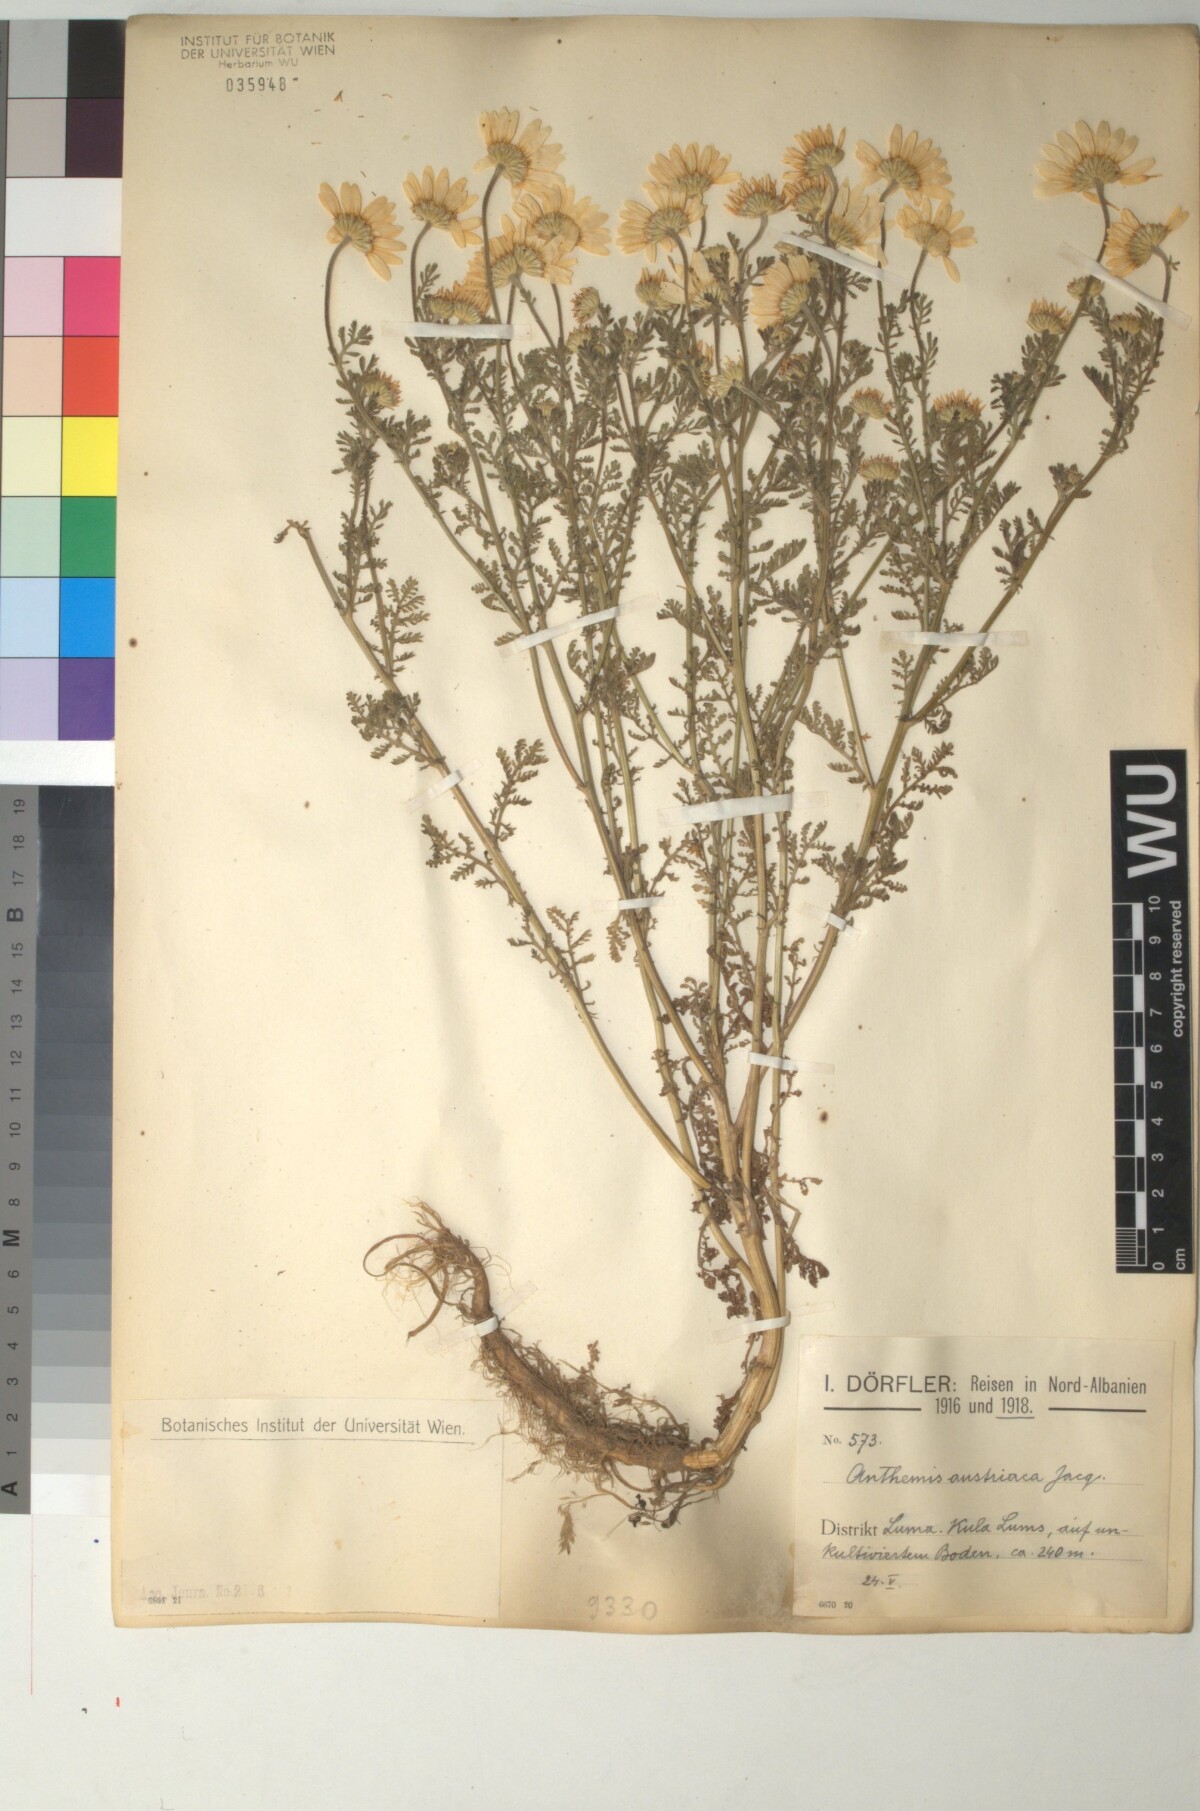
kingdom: Plantae
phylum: Tracheophyta
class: Magnoliopsida
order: Asterales
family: Asteraceae
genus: Cota
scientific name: Cota austriaca
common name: Austrian chamomile
